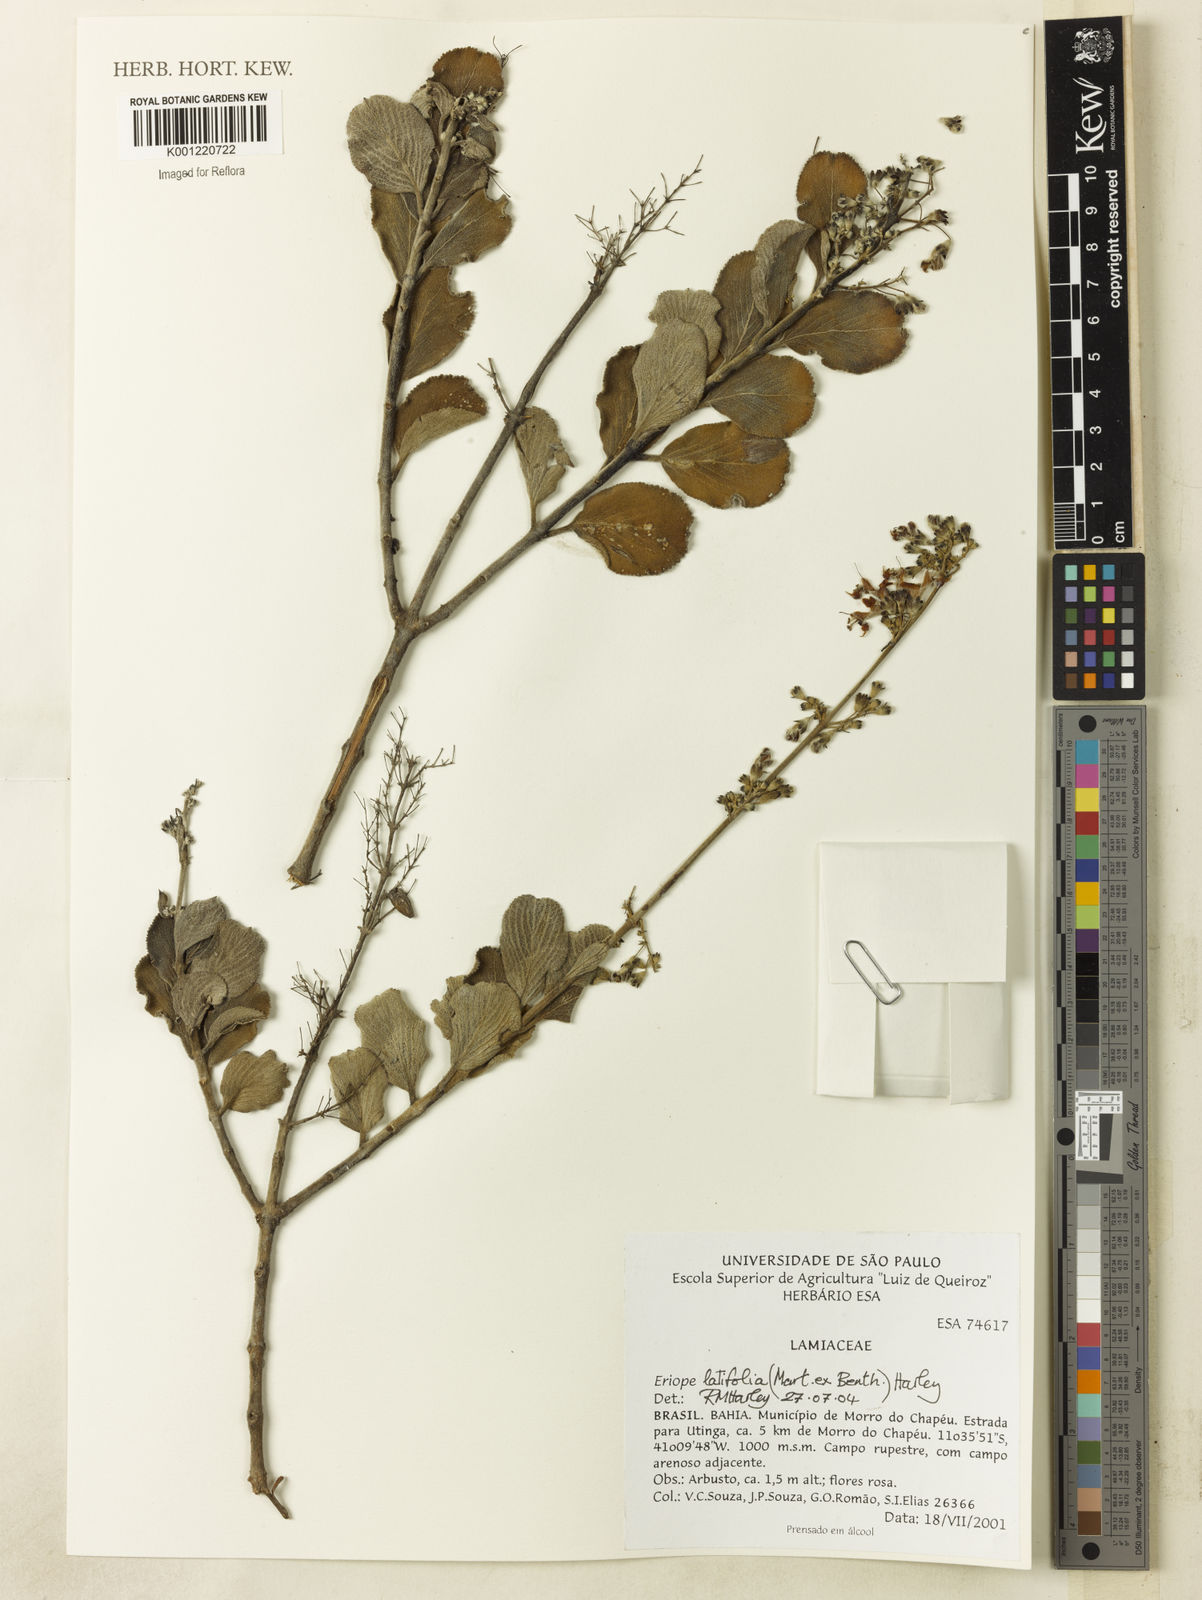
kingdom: Plantae
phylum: Tracheophyta
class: Magnoliopsida
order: Lamiales
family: Lamiaceae
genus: Eriope
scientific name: Eriope latifolia
